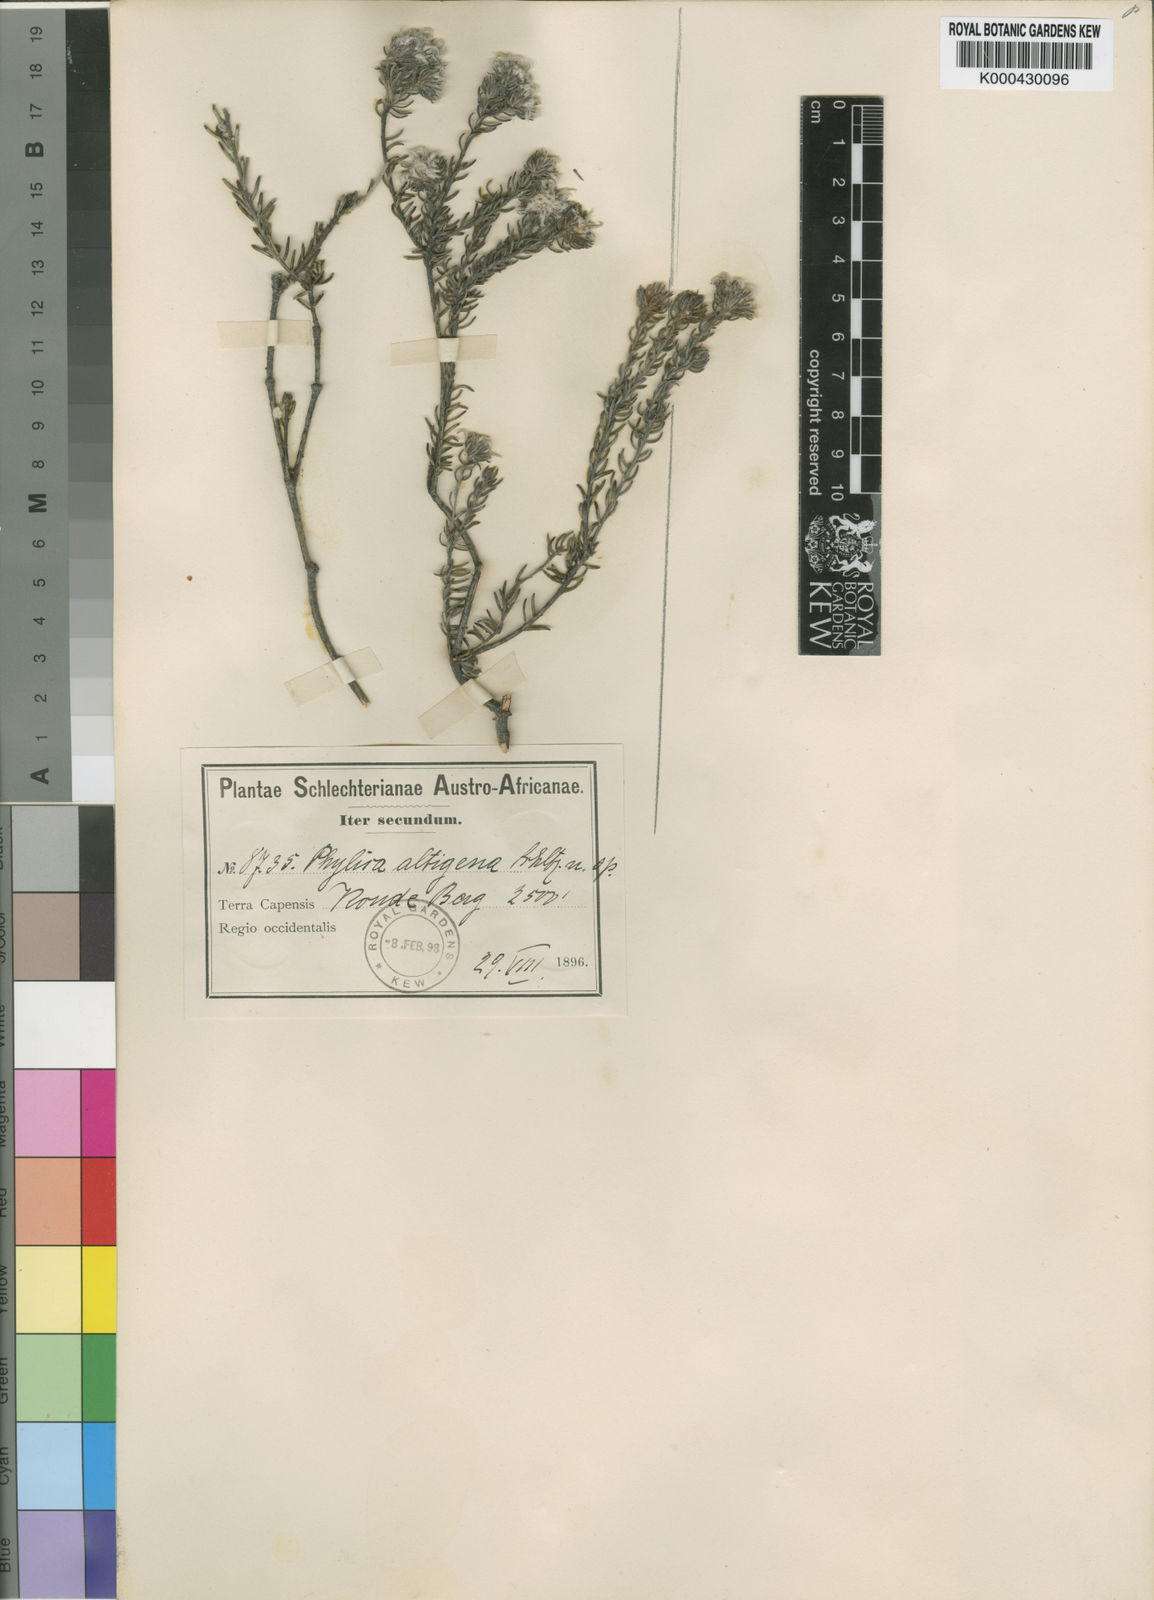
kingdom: Plantae
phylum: Tracheophyta
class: Magnoliopsida
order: Rosales
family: Rhamnaceae
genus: Phylica
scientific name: Phylica altigena
